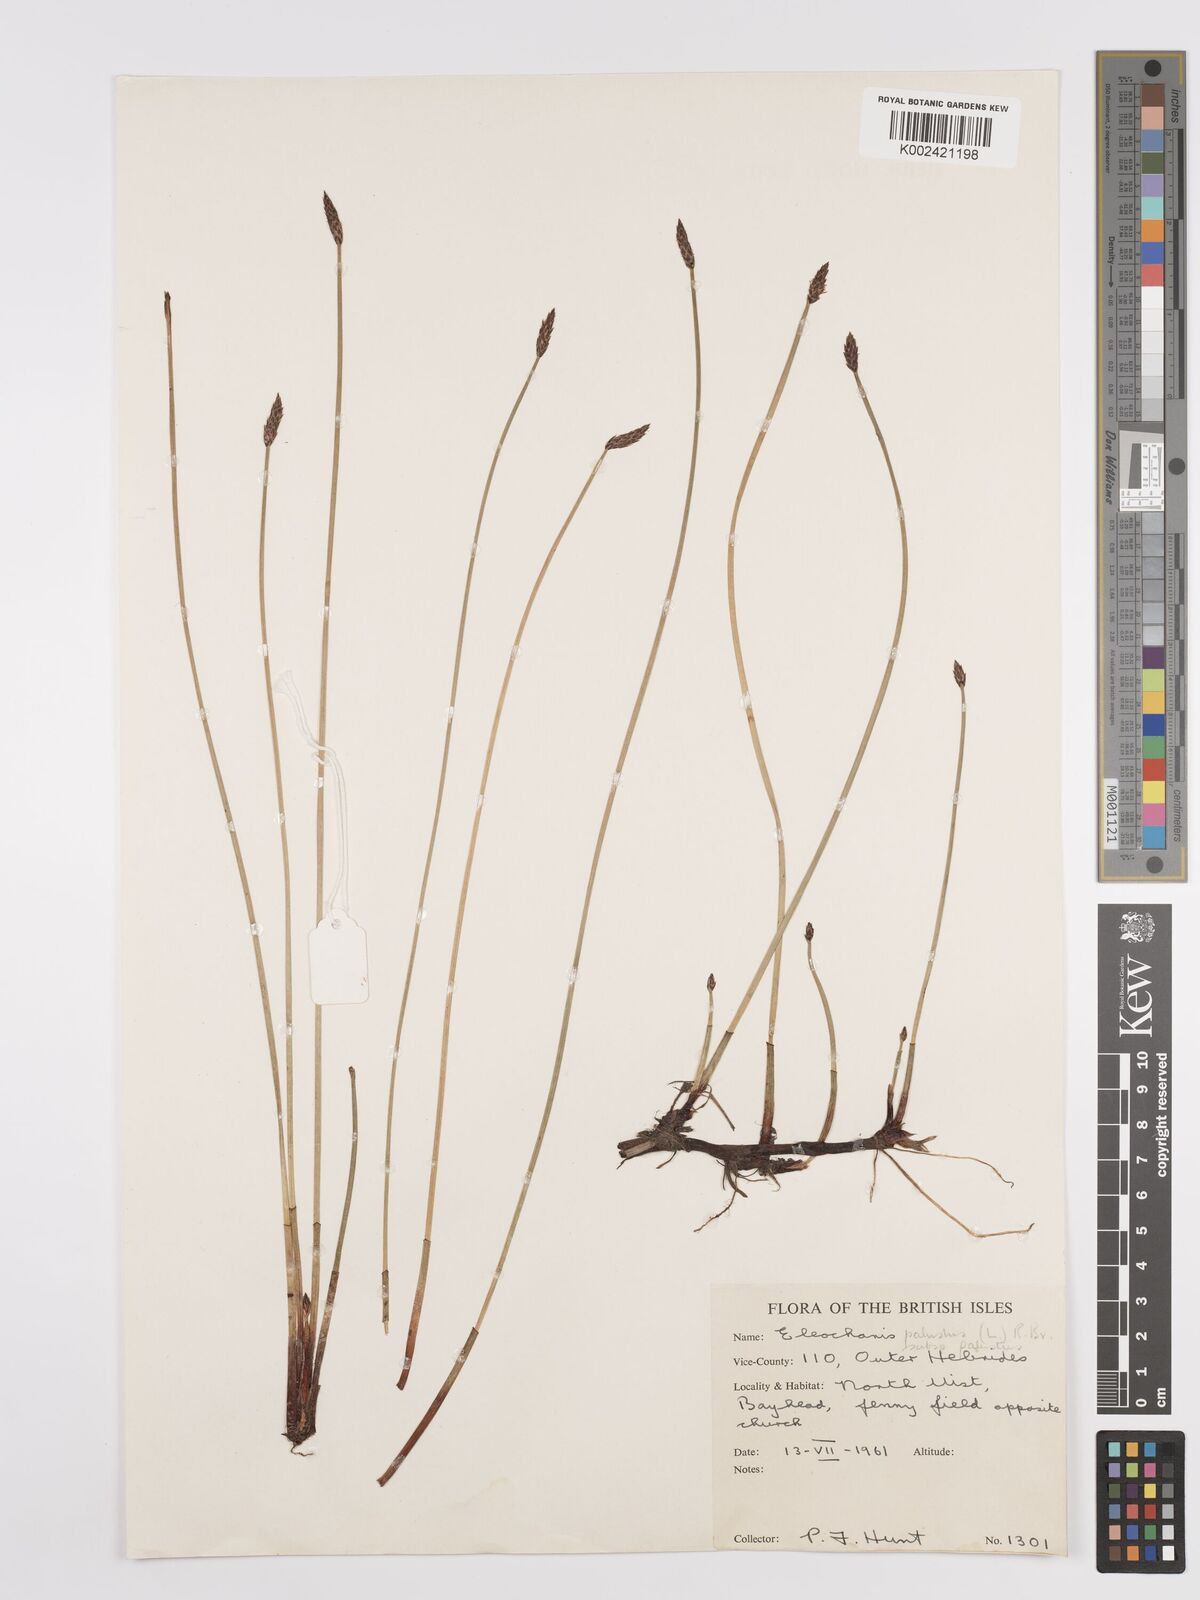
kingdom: Plantae
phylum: Tracheophyta
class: Liliopsida
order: Poales
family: Cyperaceae
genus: Eleocharis
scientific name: Eleocharis palustris
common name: Common spike-rush
